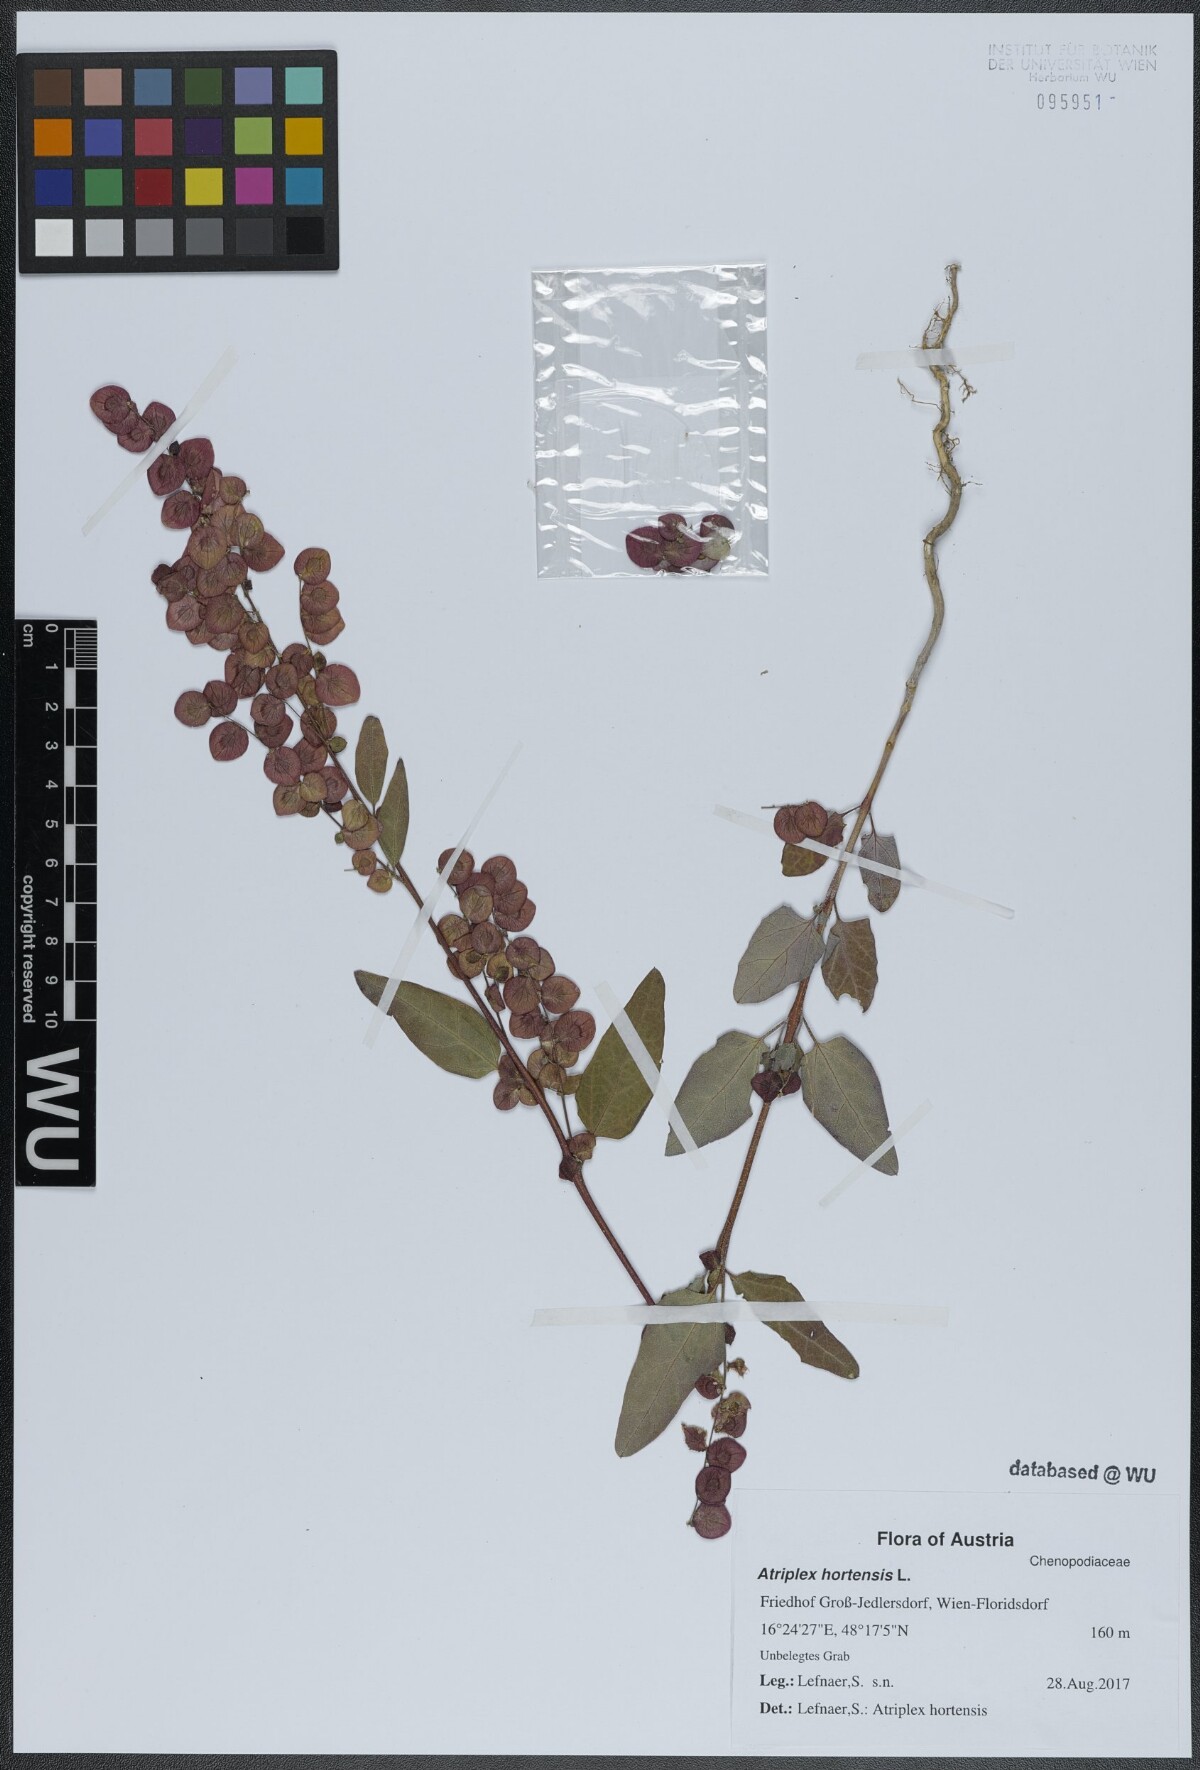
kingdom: Plantae
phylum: Tracheophyta
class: Magnoliopsida
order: Caryophyllales
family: Amaranthaceae
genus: Atriplex
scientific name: Atriplex hortensis
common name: Garden orache
